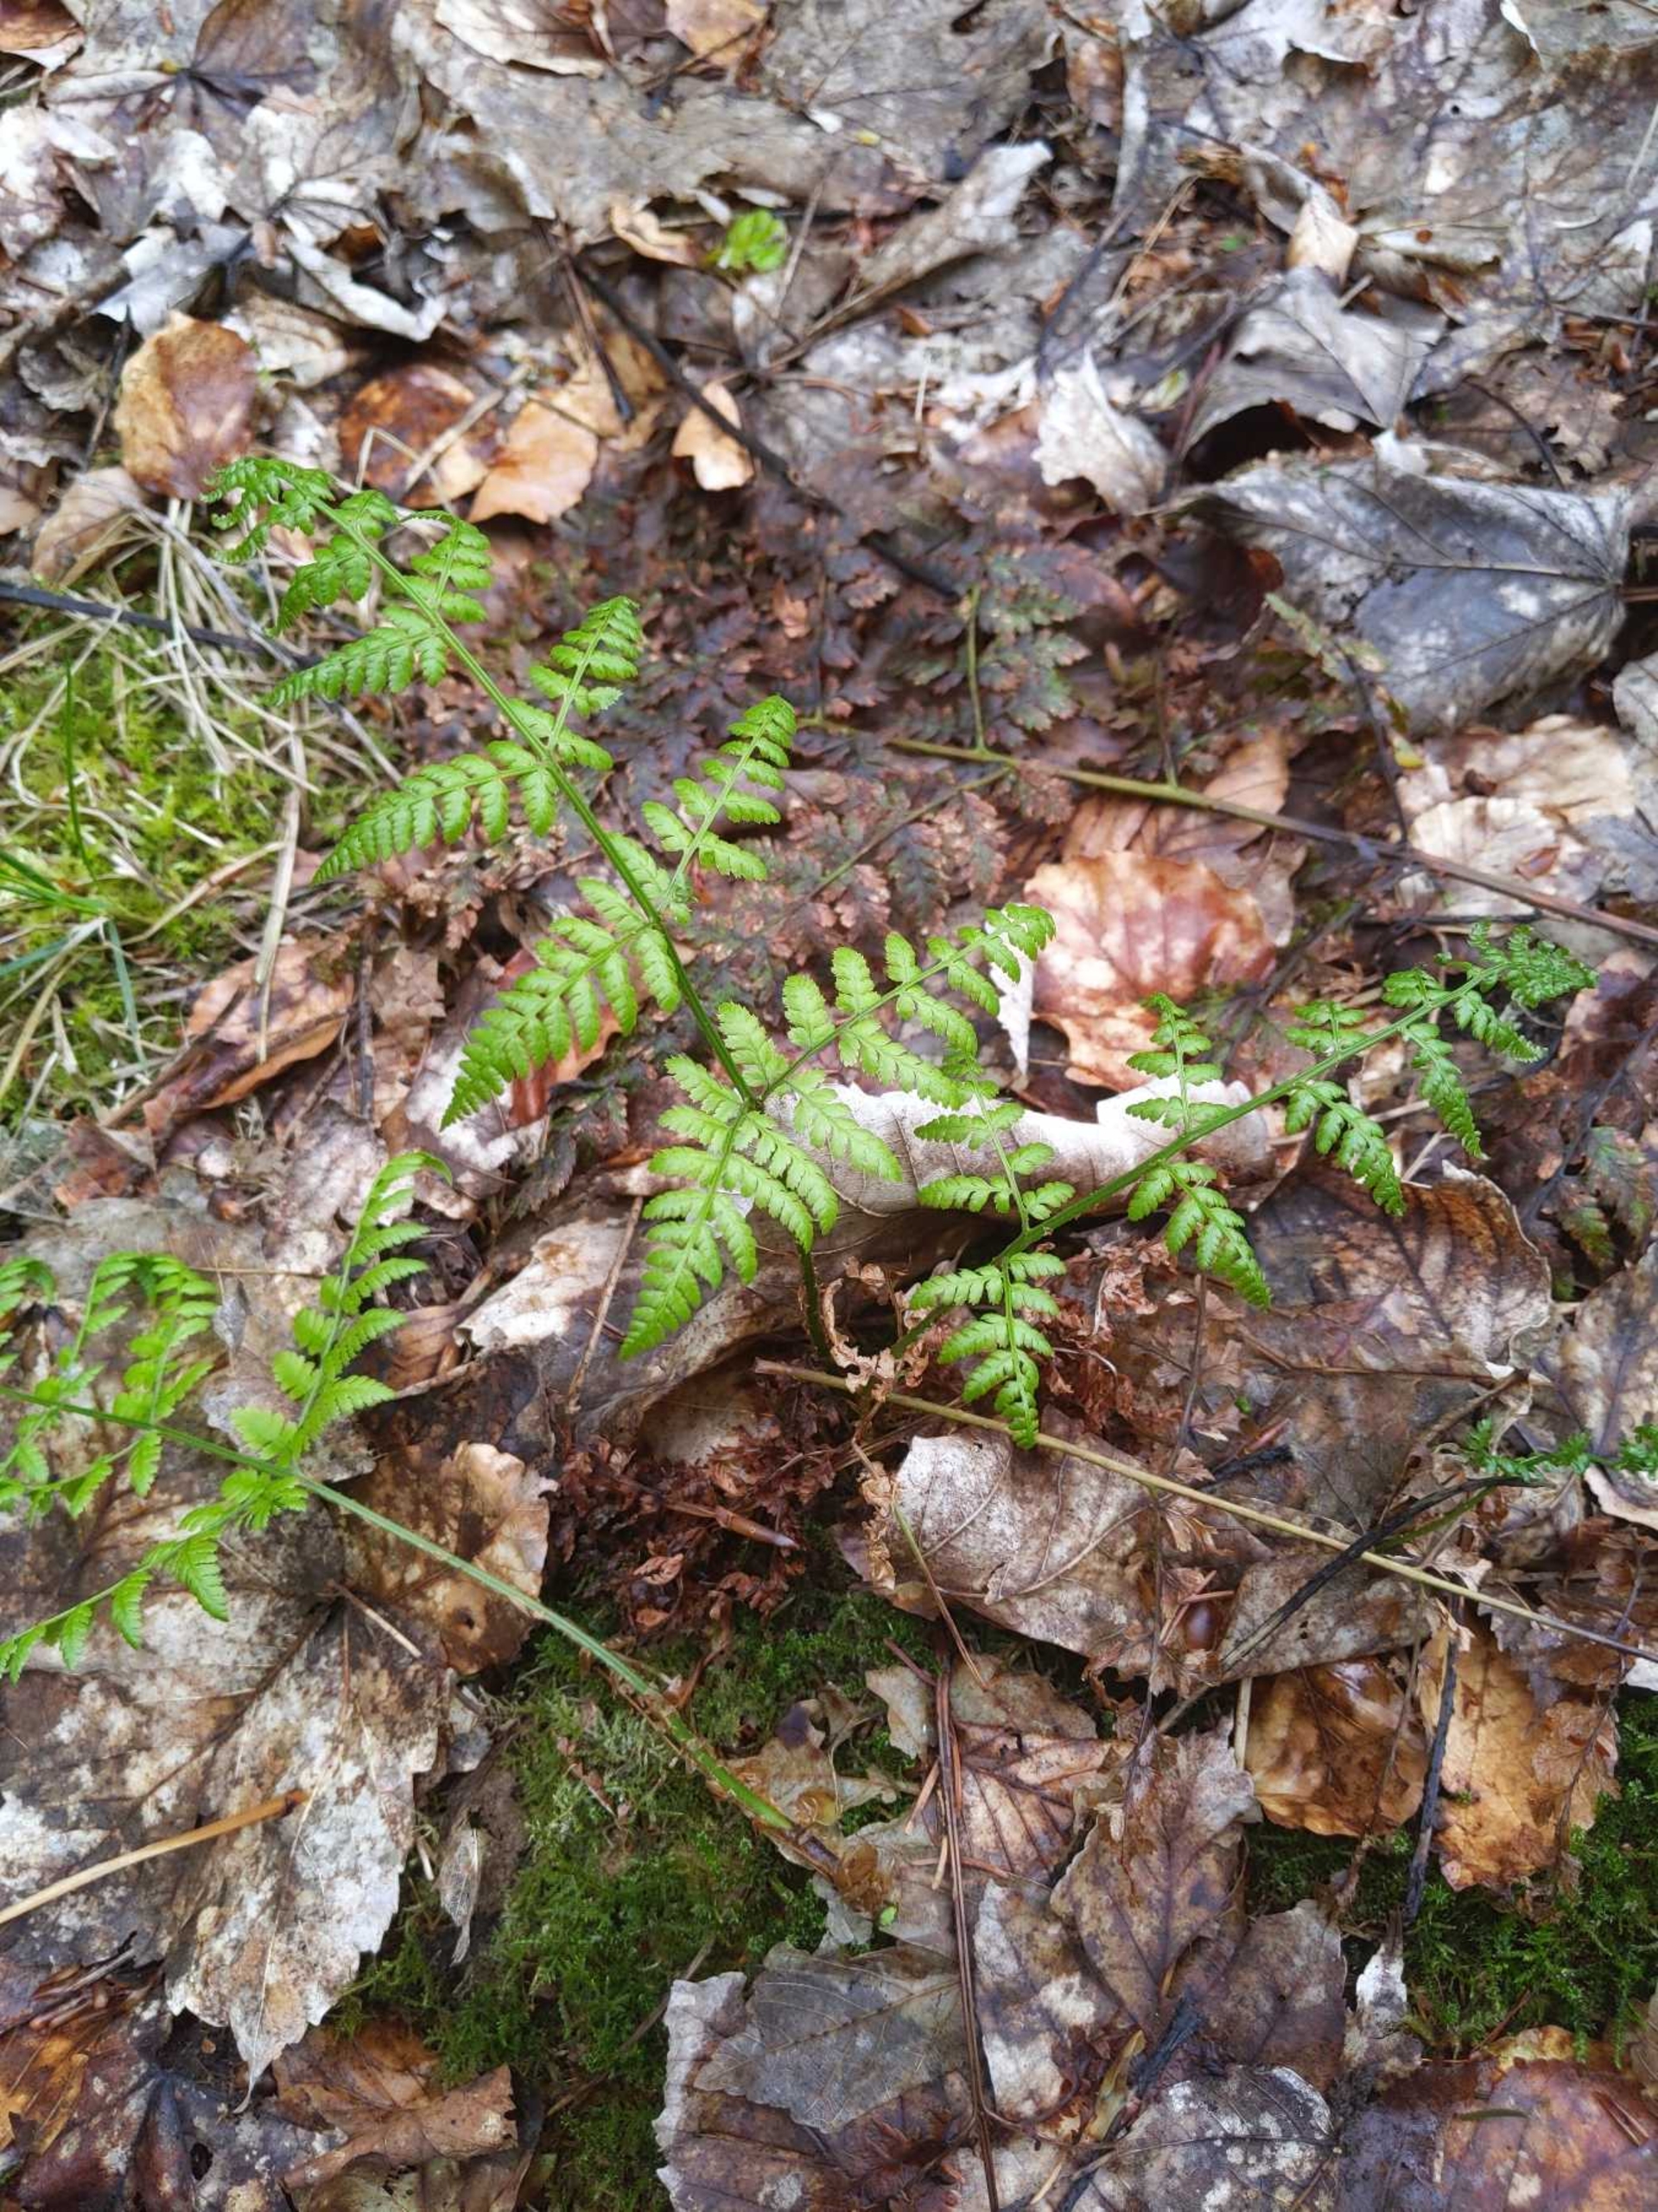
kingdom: Plantae
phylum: Tracheophyta
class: Polypodiopsida
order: Polypodiales
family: Dryopteridaceae
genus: Dryopteris
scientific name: Dryopteris carthusiana
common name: Smalbladet mangeløv
